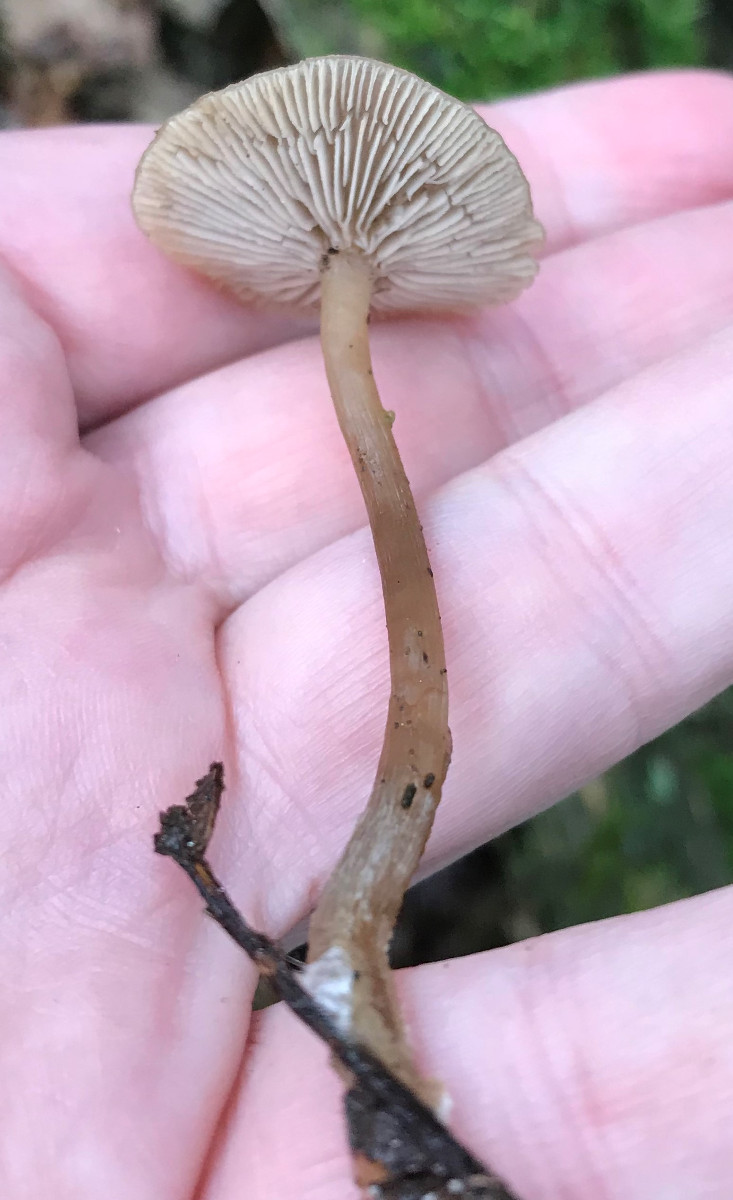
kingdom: Fungi
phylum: Basidiomycota
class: Agaricomycetes
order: Agaricales
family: Tricholomataceae
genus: Clitocybe
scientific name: Clitocybe
